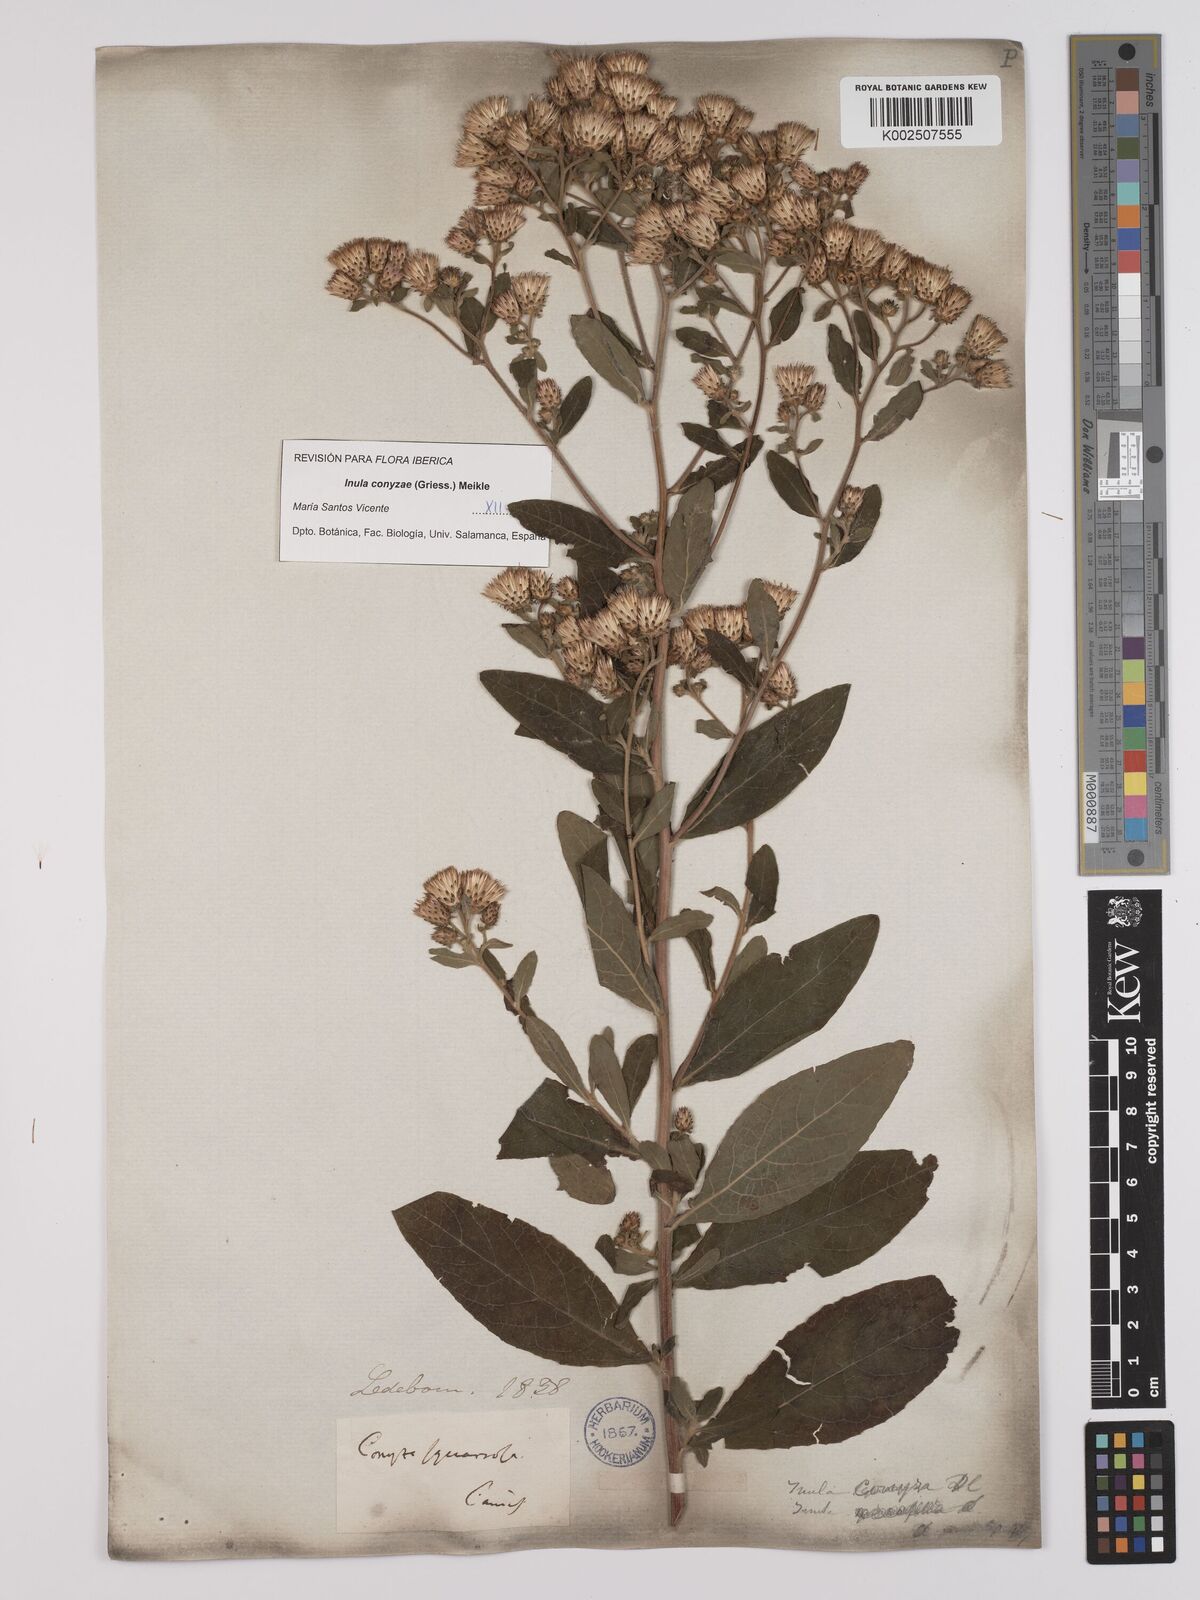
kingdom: Plantae
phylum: Tracheophyta
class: Magnoliopsida
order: Asterales
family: Asteraceae
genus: Pentanema
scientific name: Pentanema squarrosum
